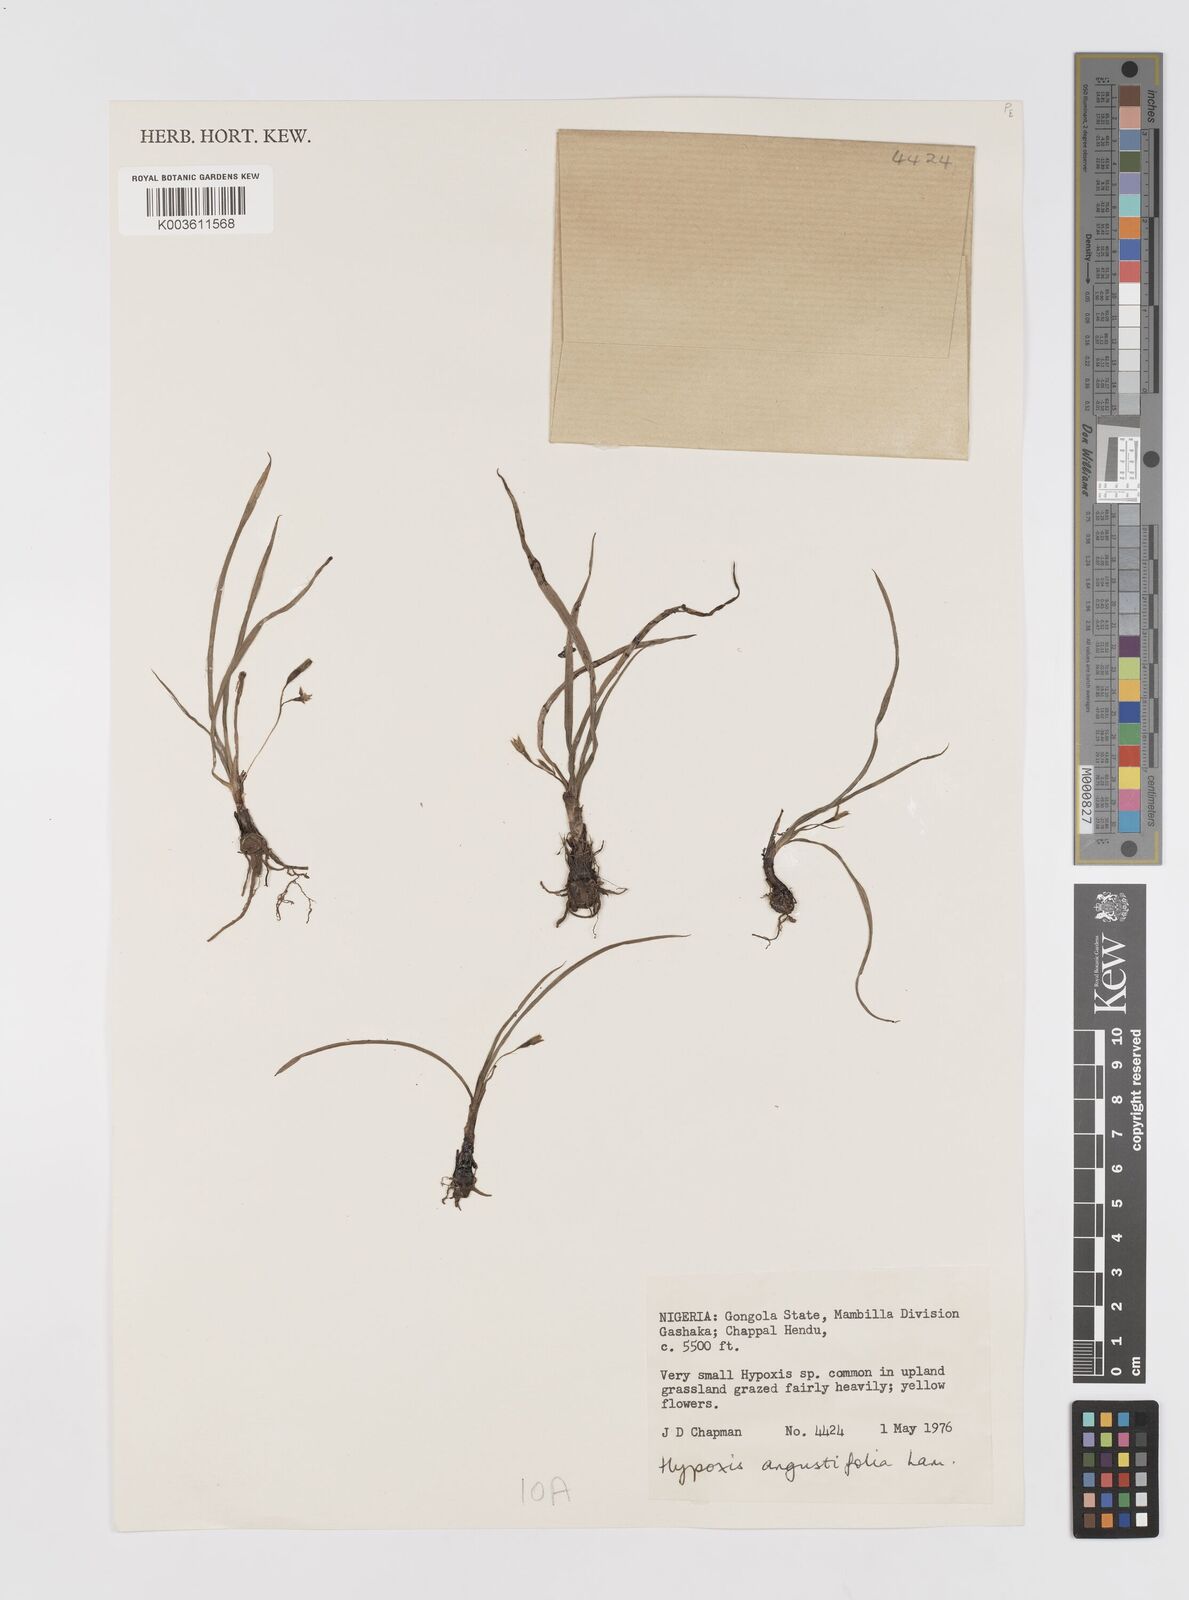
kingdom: Plantae
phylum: Tracheophyta
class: Liliopsida
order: Asparagales
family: Hypoxidaceae
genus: Hypoxis
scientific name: Hypoxis angustifolia
